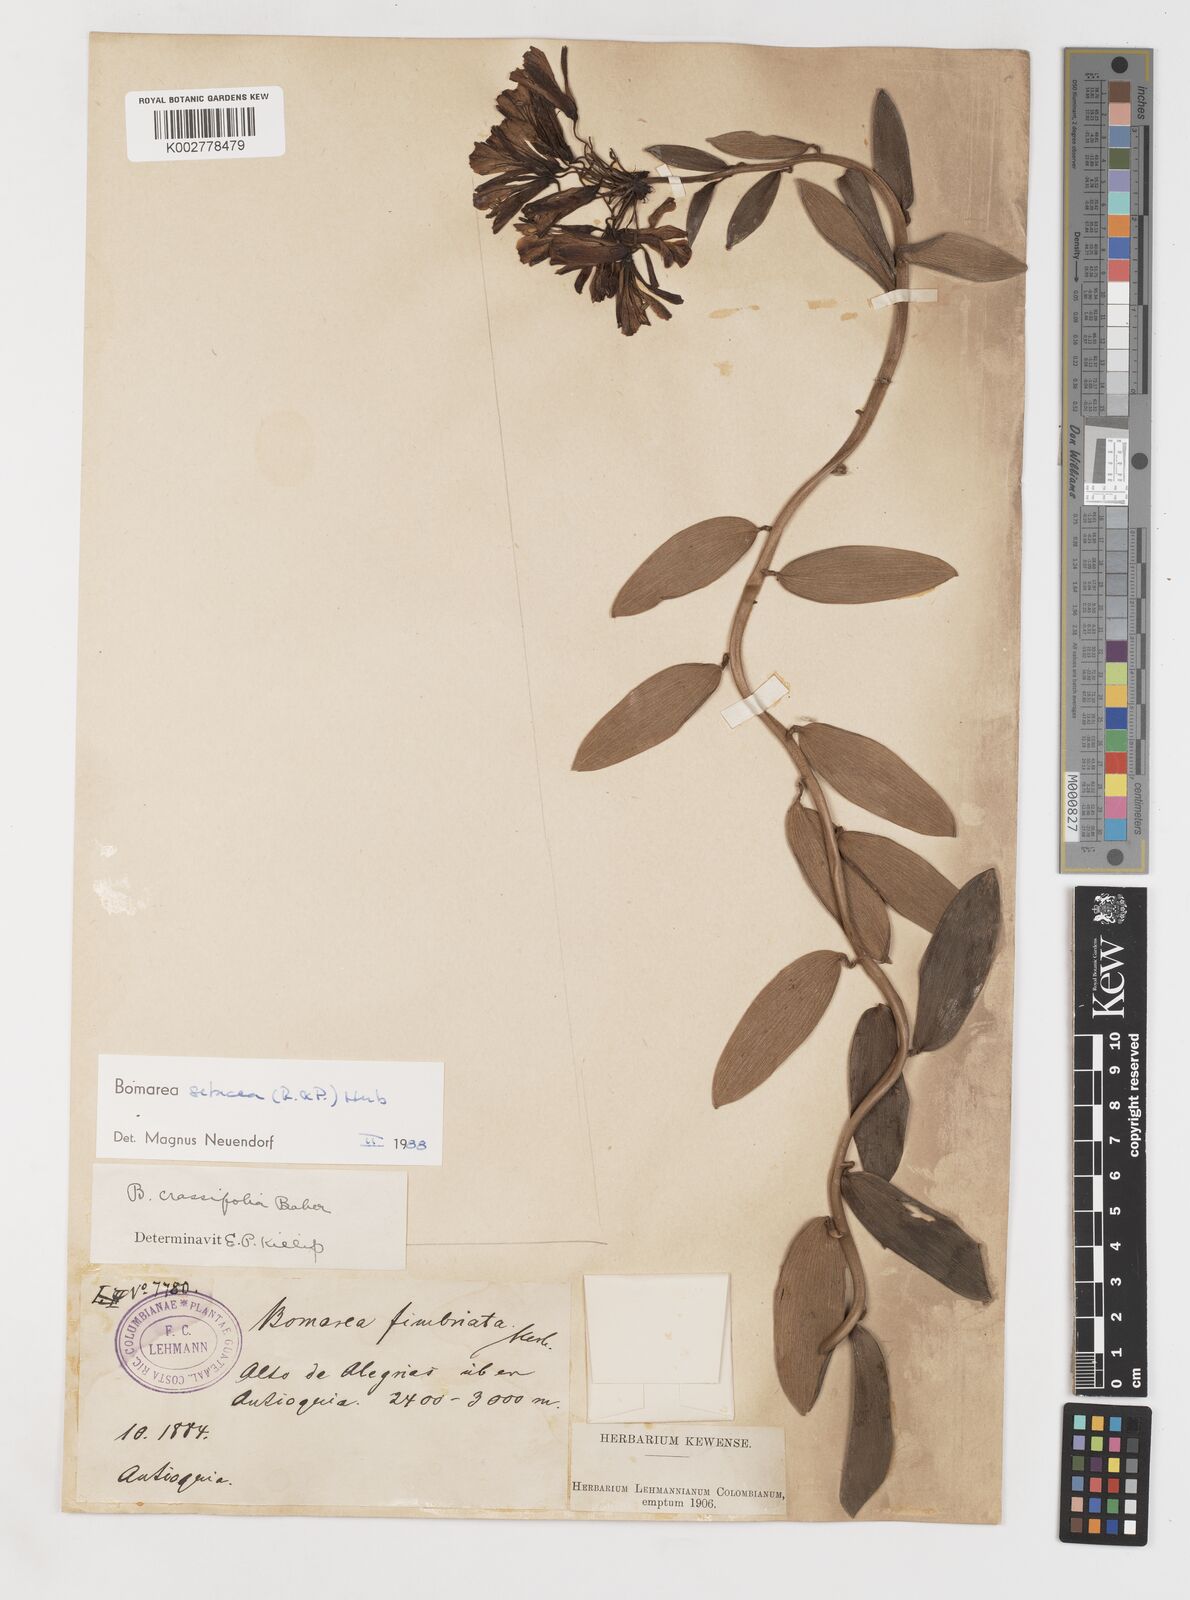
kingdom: Plantae
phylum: Tracheophyta
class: Liliopsida
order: Liliales
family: Alstroemeriaceae
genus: Bomarea
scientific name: Bomarea setacea
